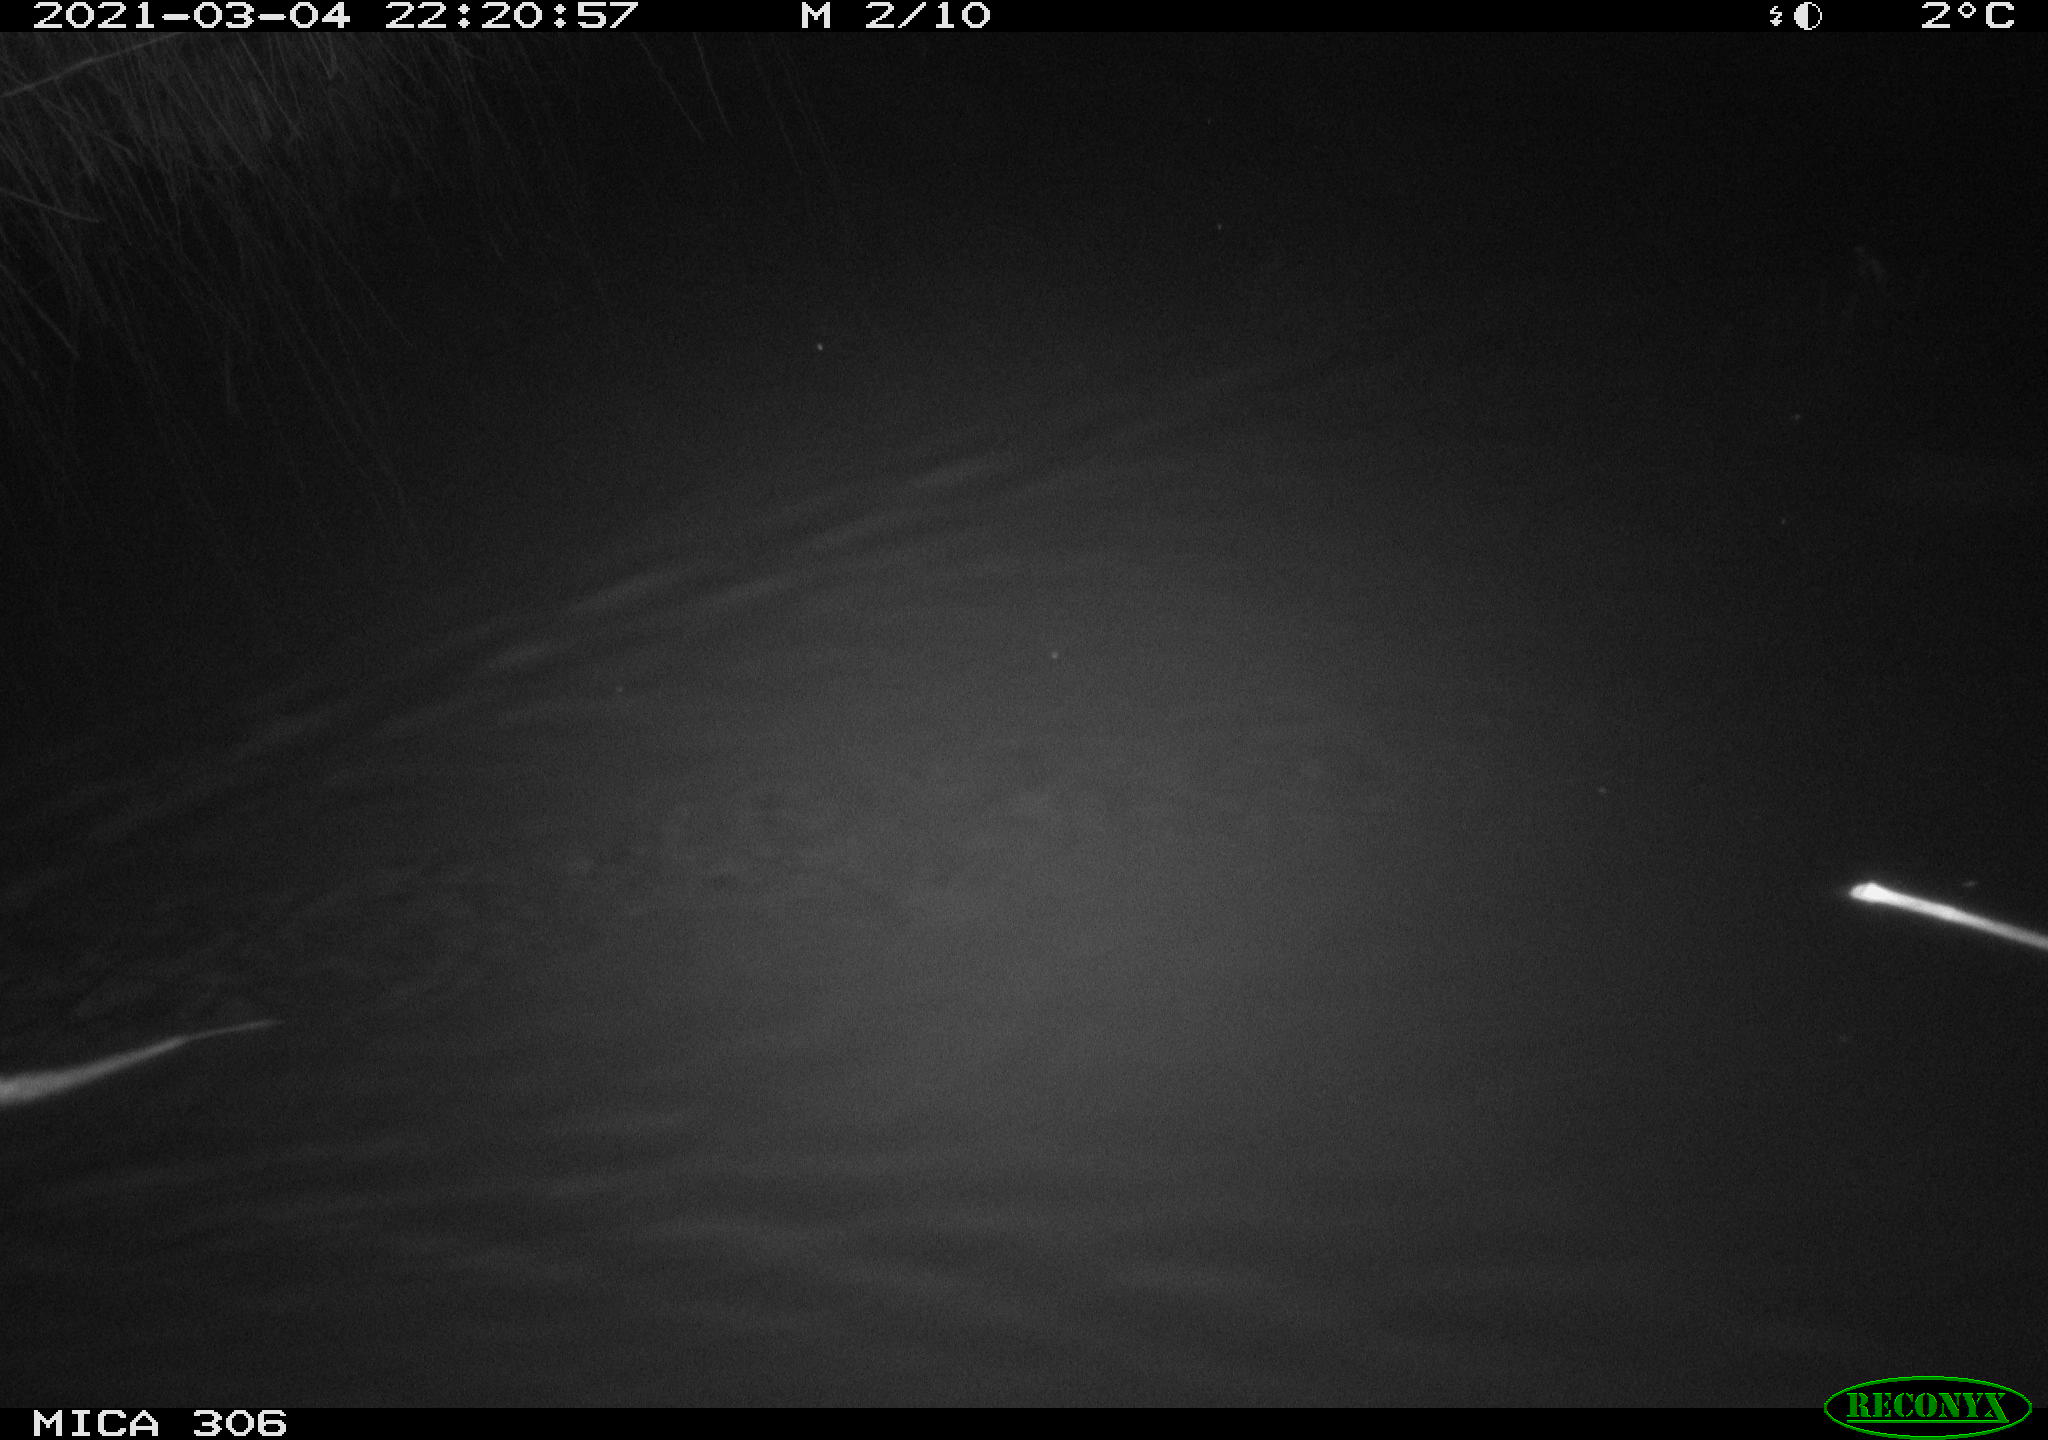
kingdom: Animalia
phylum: Chordata
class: Mammalia
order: Rodentia
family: Cricetidae
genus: Ondatra
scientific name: Ondatra zibethicus
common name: Muskrat
